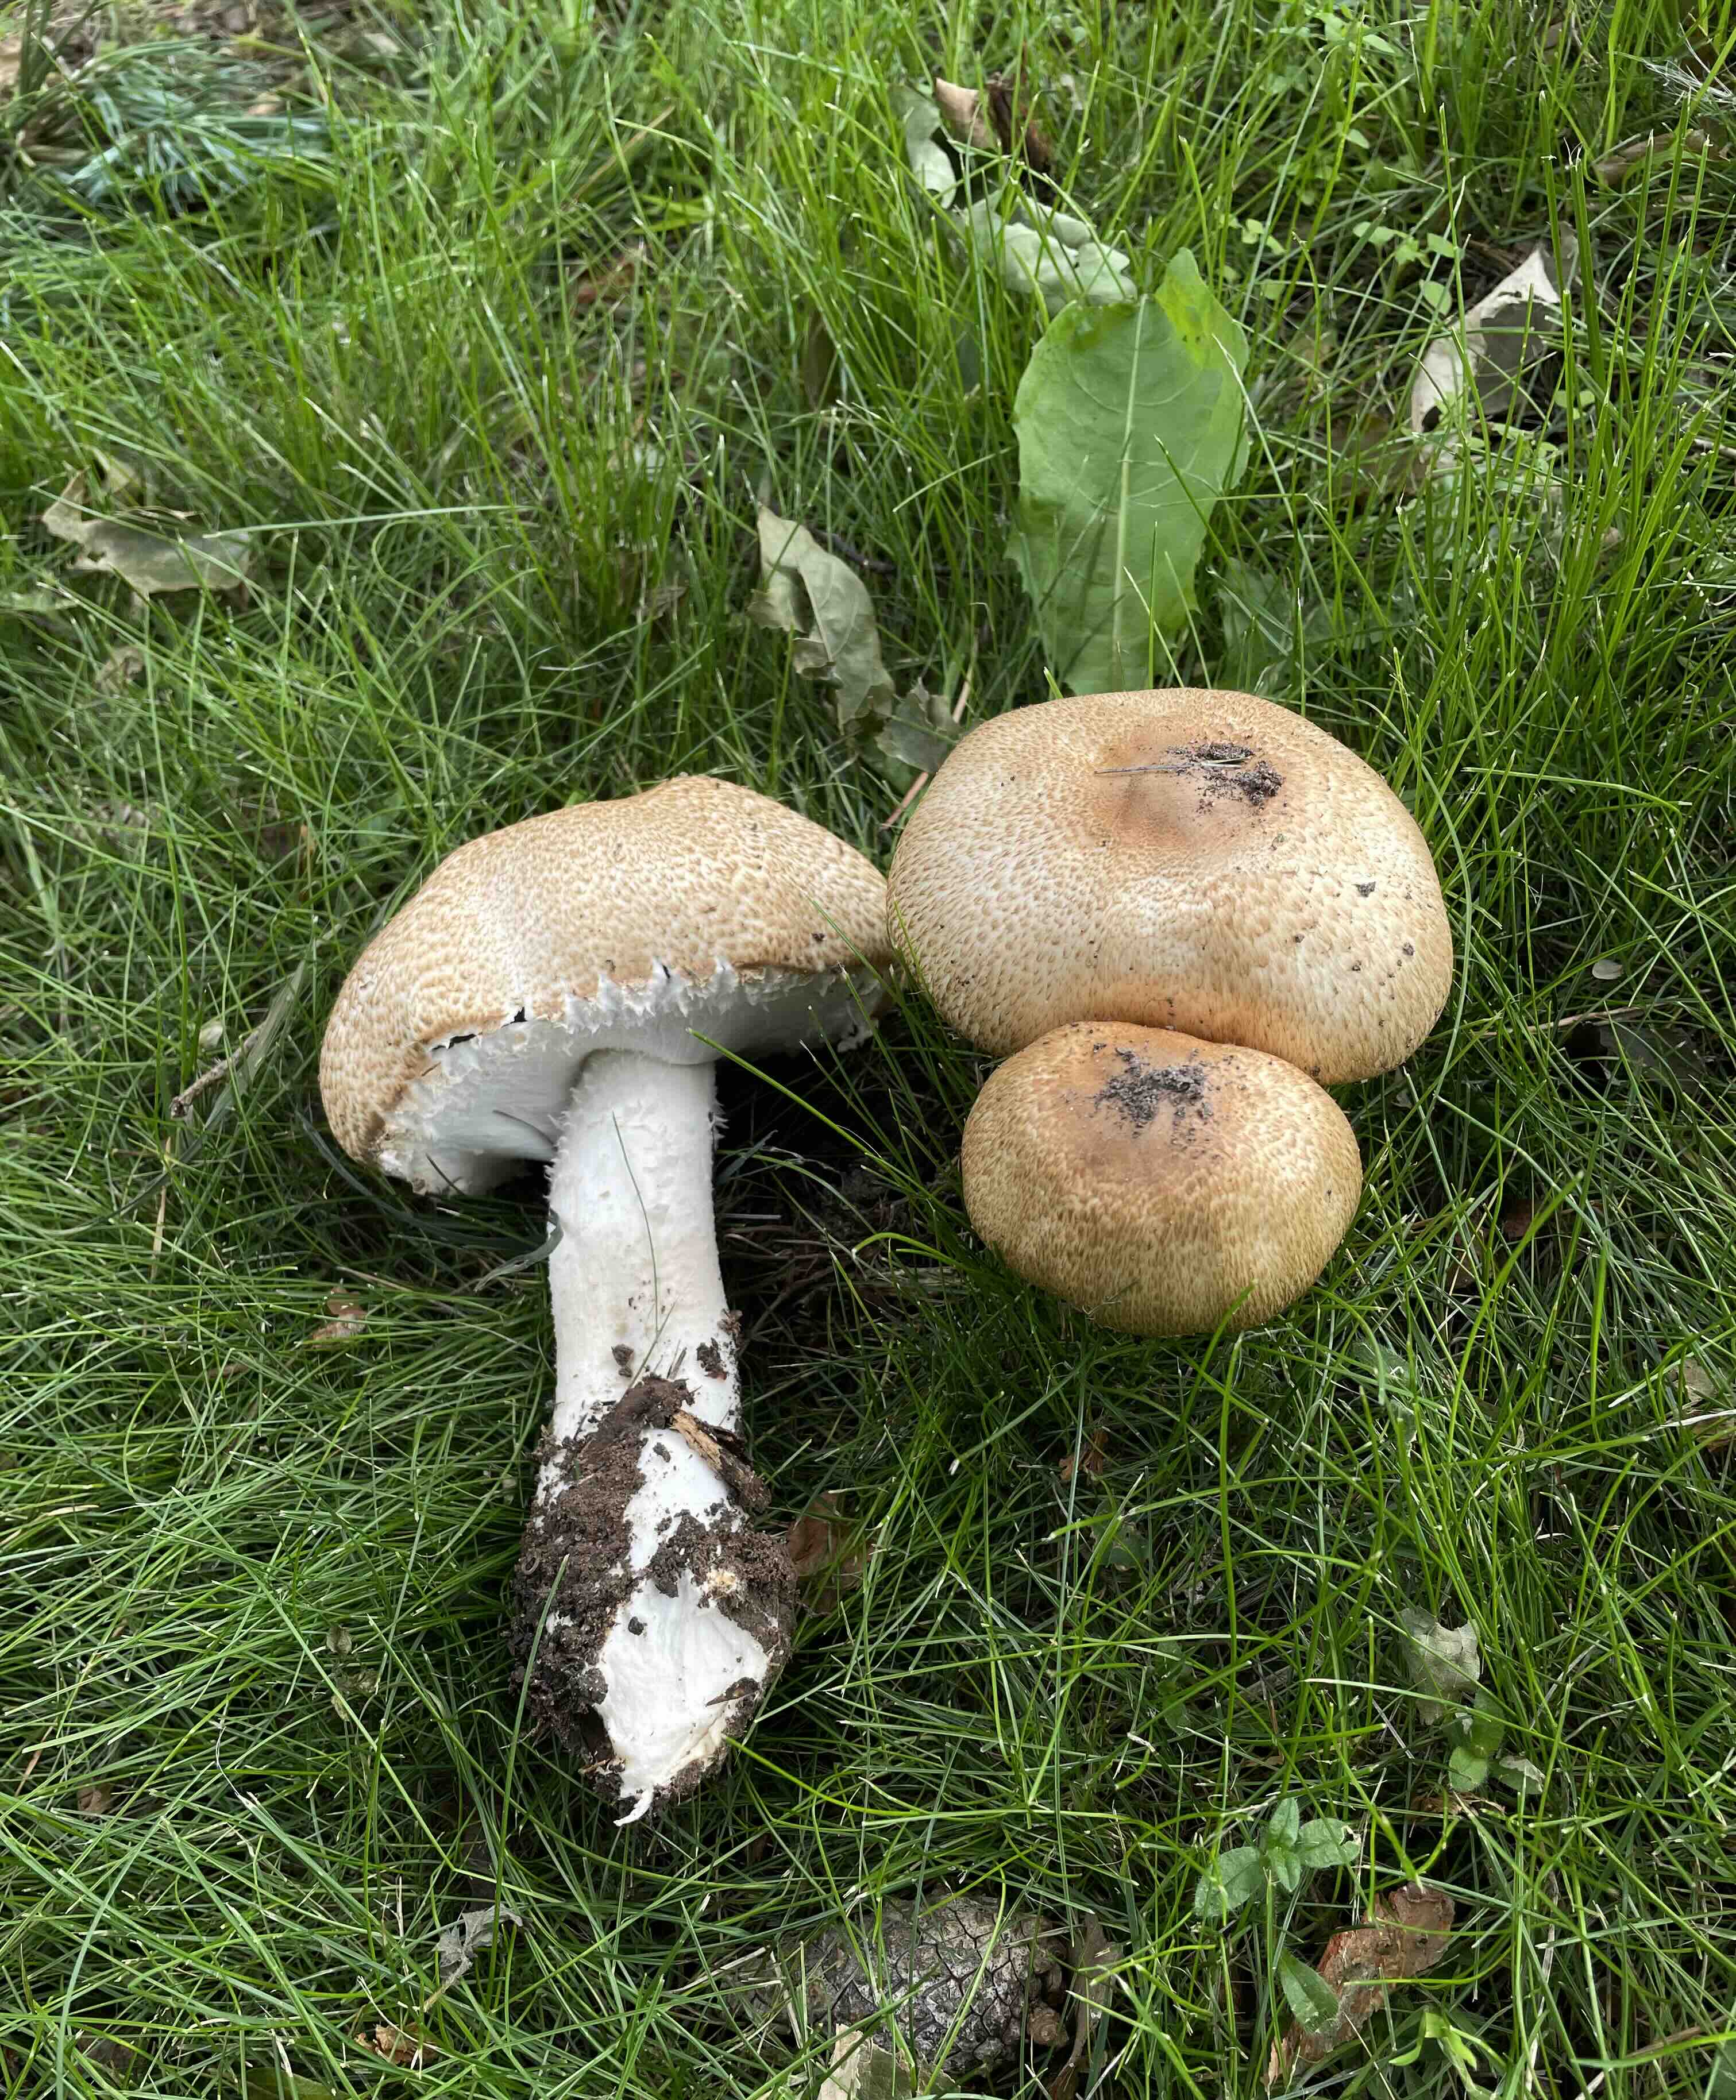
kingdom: Fungi
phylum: Basidiomycota
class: Agaricomycetes
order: Agaricales
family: Agaricaceae
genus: Agaricus
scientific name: Agaricus augustus
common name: prægtig champignon
